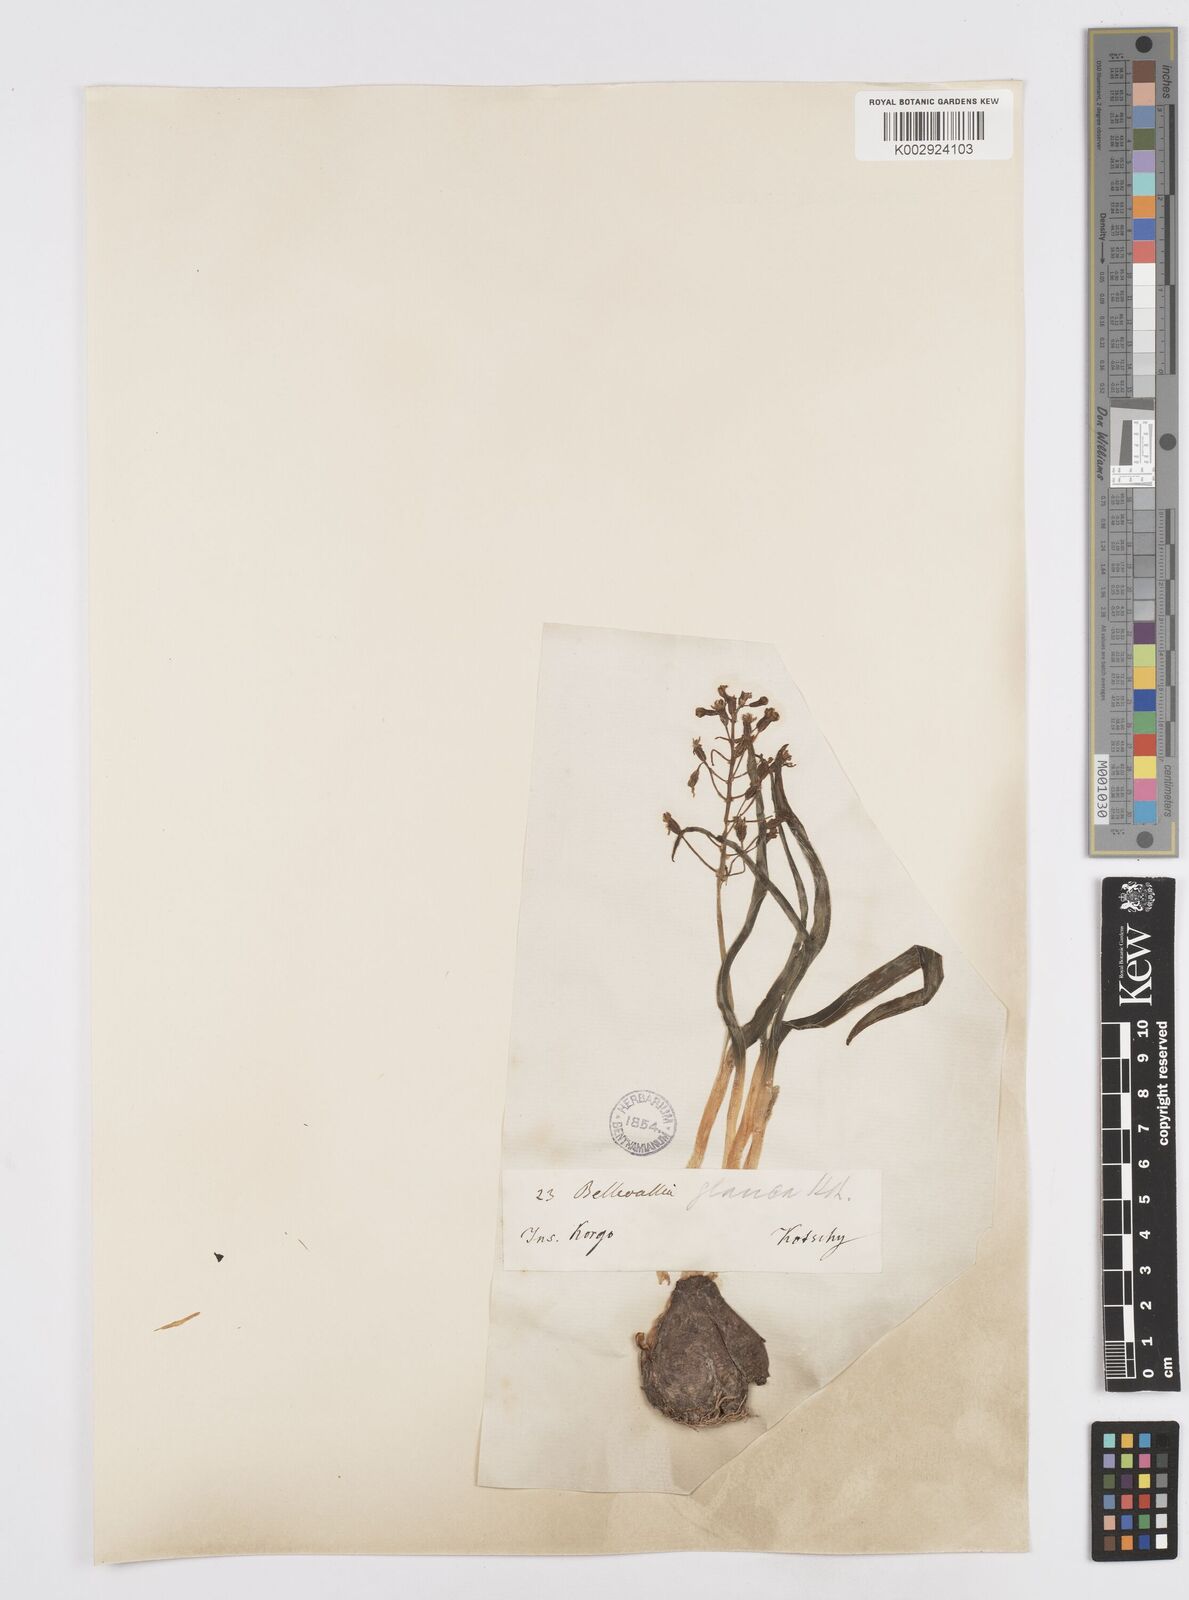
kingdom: Plantae
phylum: Tracheophyta
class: Liliopsida
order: Asparagales
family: Asparagaceae
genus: Bellevalia
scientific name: Bellevalia ciliata
